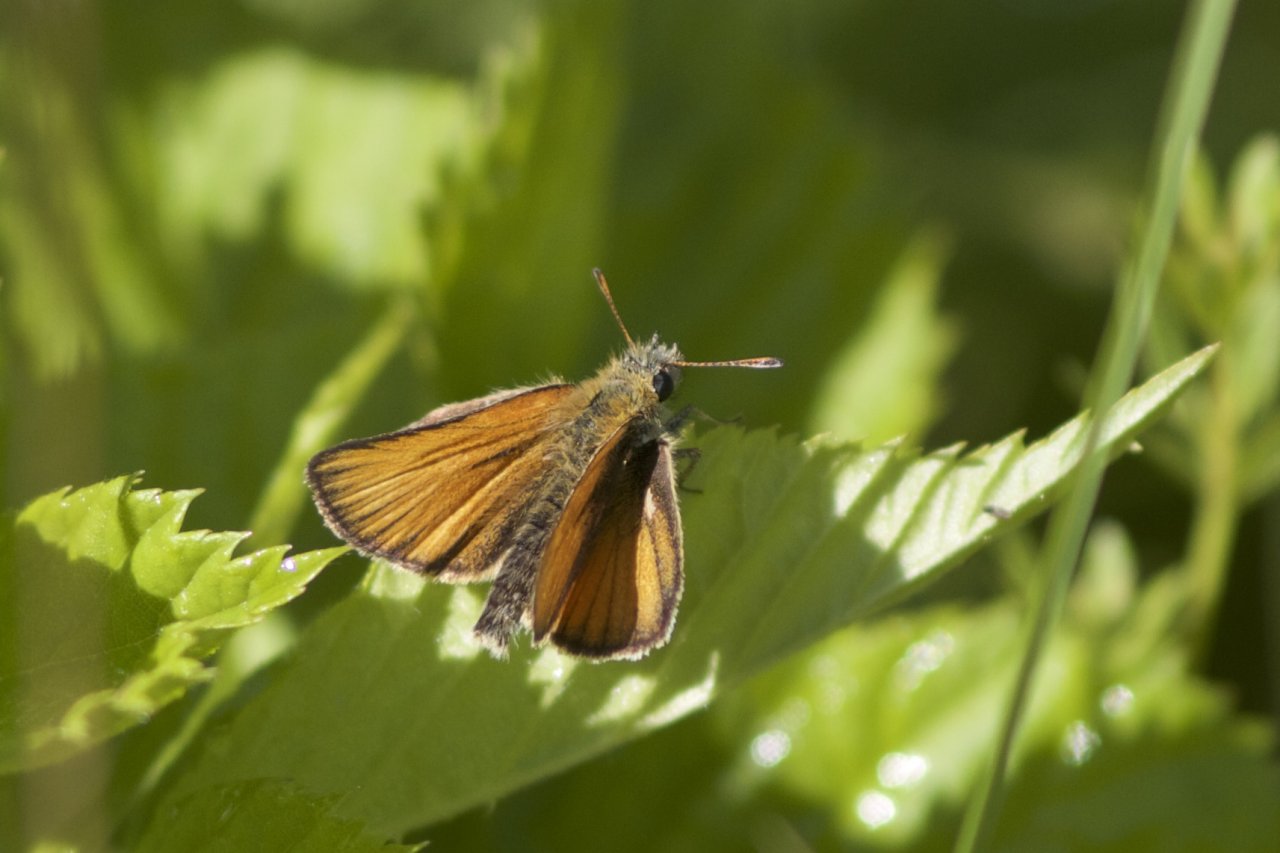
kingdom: Animalia
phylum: Arthropoda
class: Insecta
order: Lepidoptera
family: Hesperiidae
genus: Thymelicus
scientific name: Thymelicus lineola
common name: European Skipper
